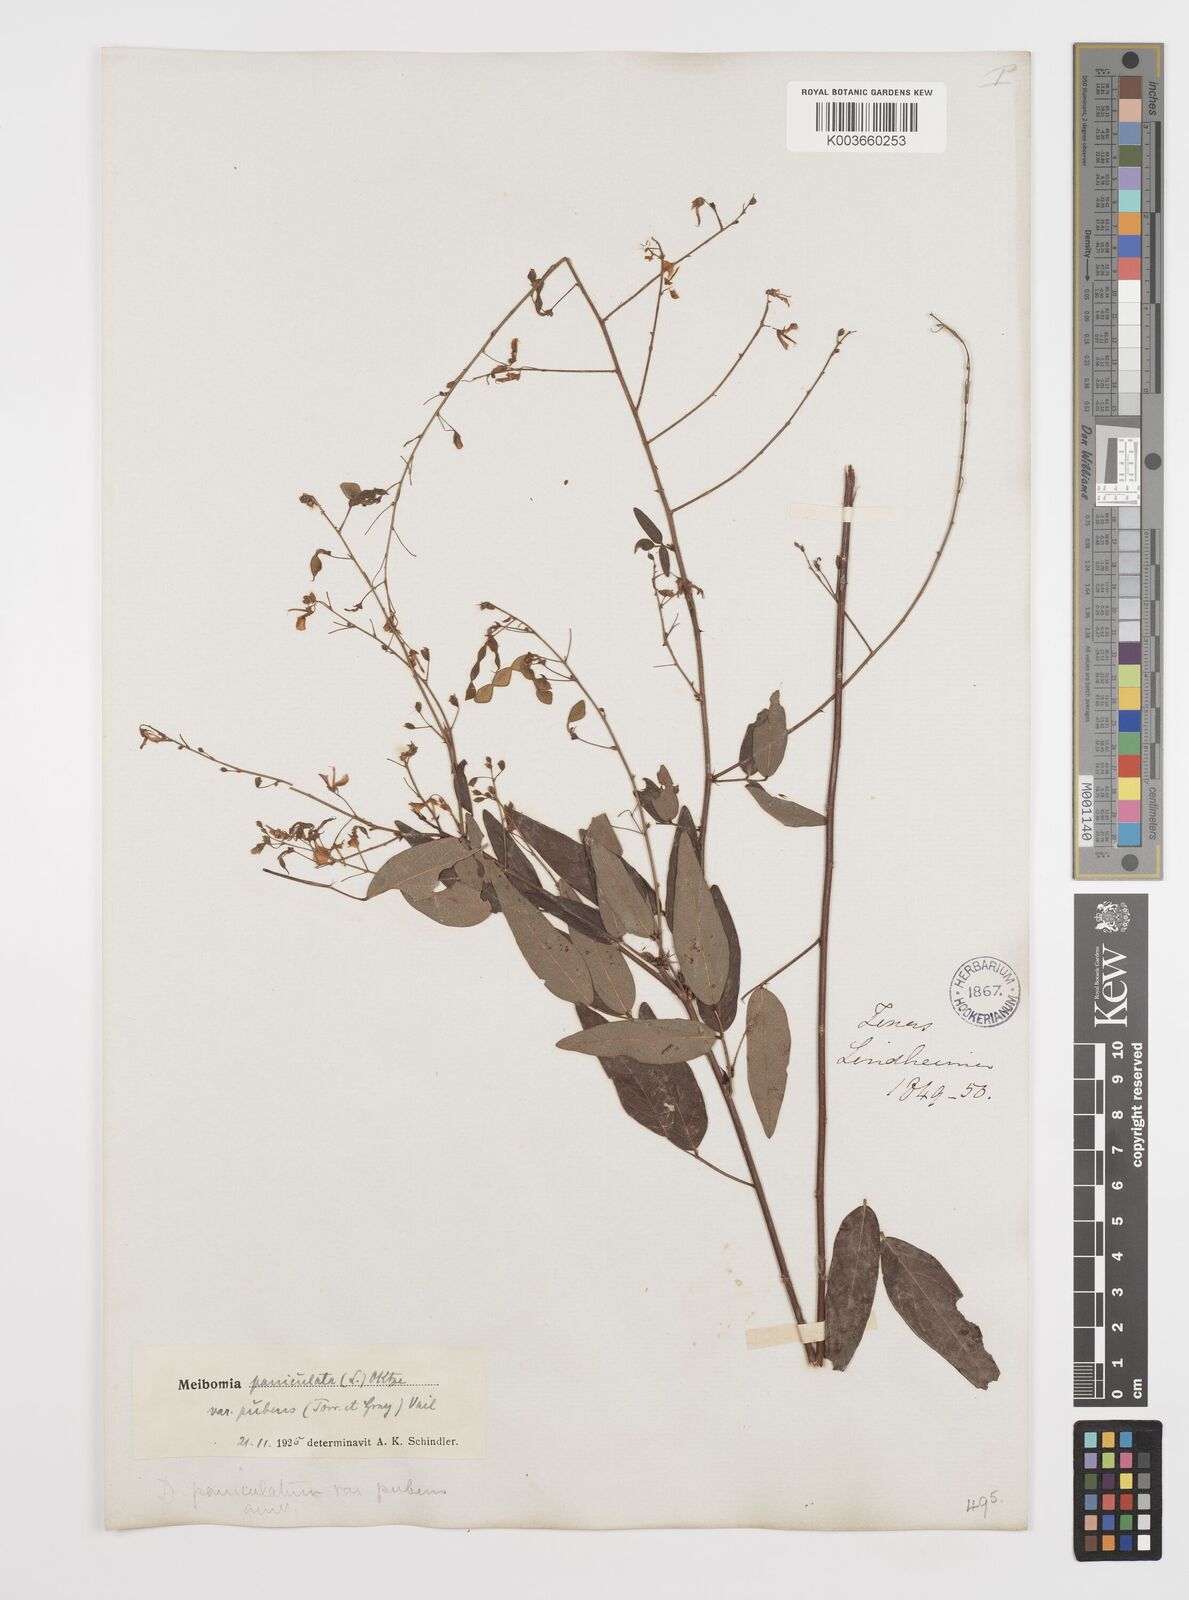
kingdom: Plantae
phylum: Tracheophyta
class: Magnoliopsida
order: Fabales
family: Fabaceae
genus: Desmodium
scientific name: Desmodium paniculatum
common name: Panicled tick-clover
